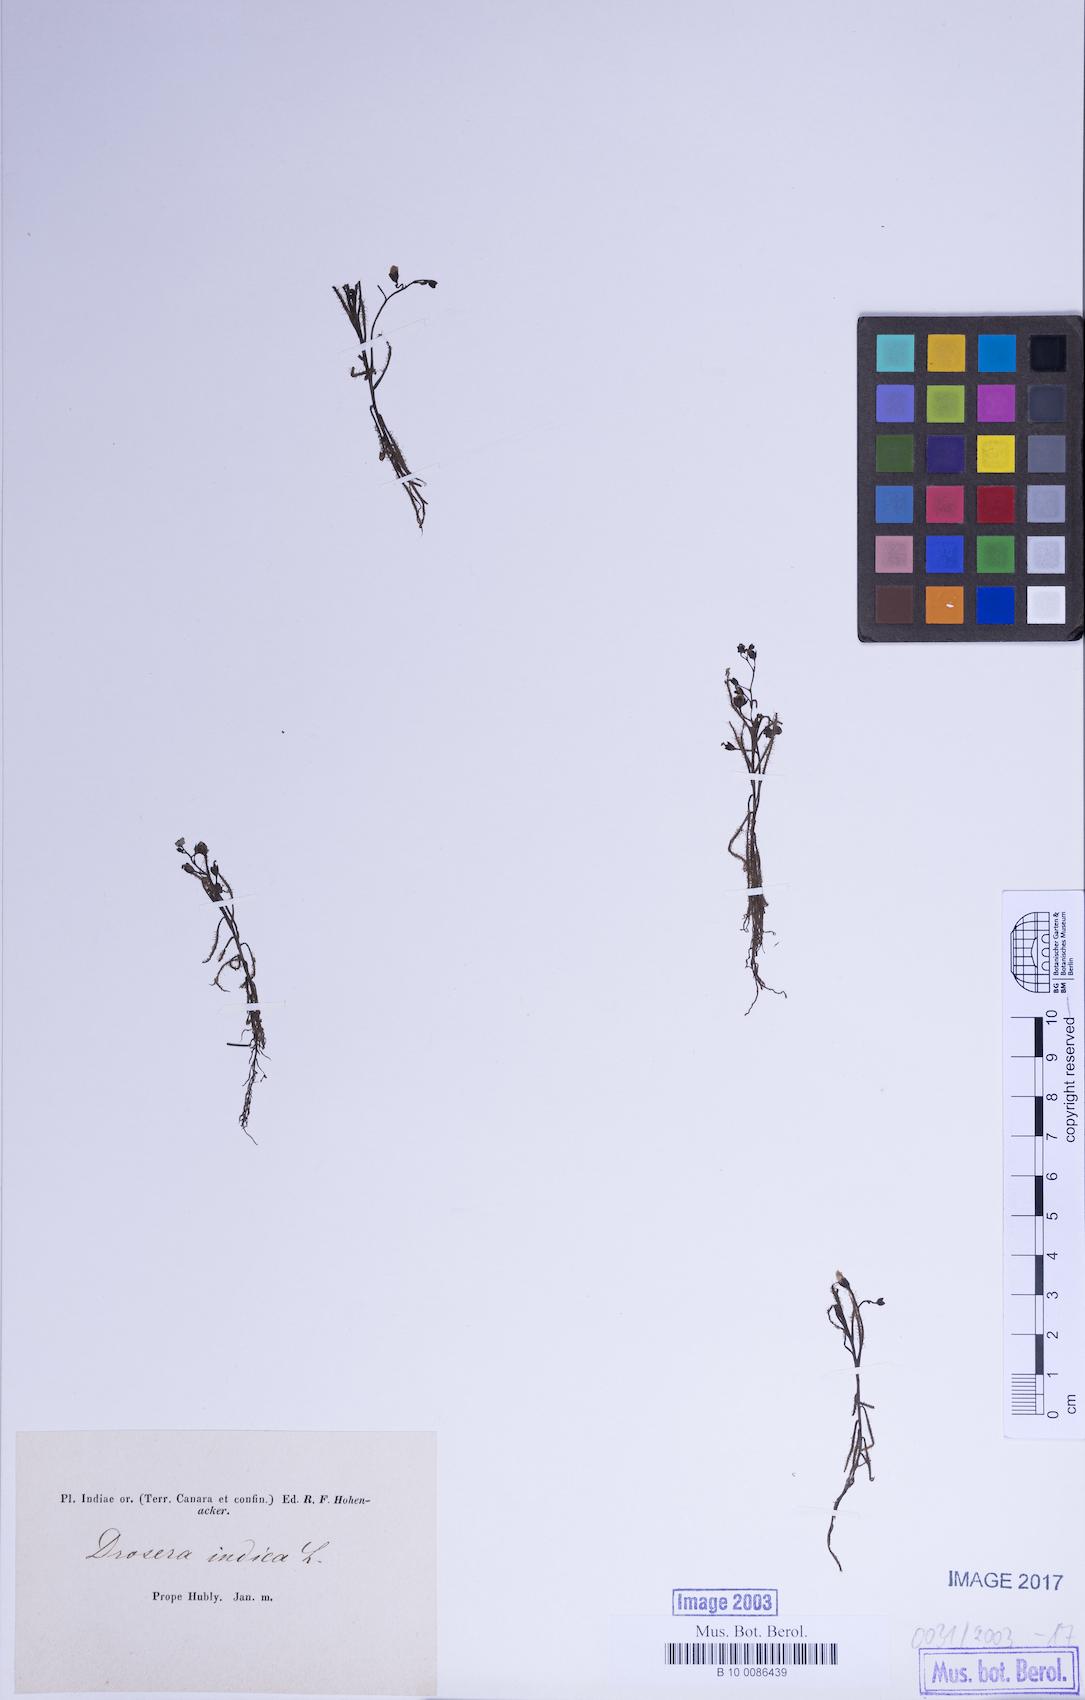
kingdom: Plantae
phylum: Tracheophyta
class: Magnoliopsida
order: Caryophyllales
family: Droseraceae
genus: Drosera
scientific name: Drosera indica
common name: Indian sundew
